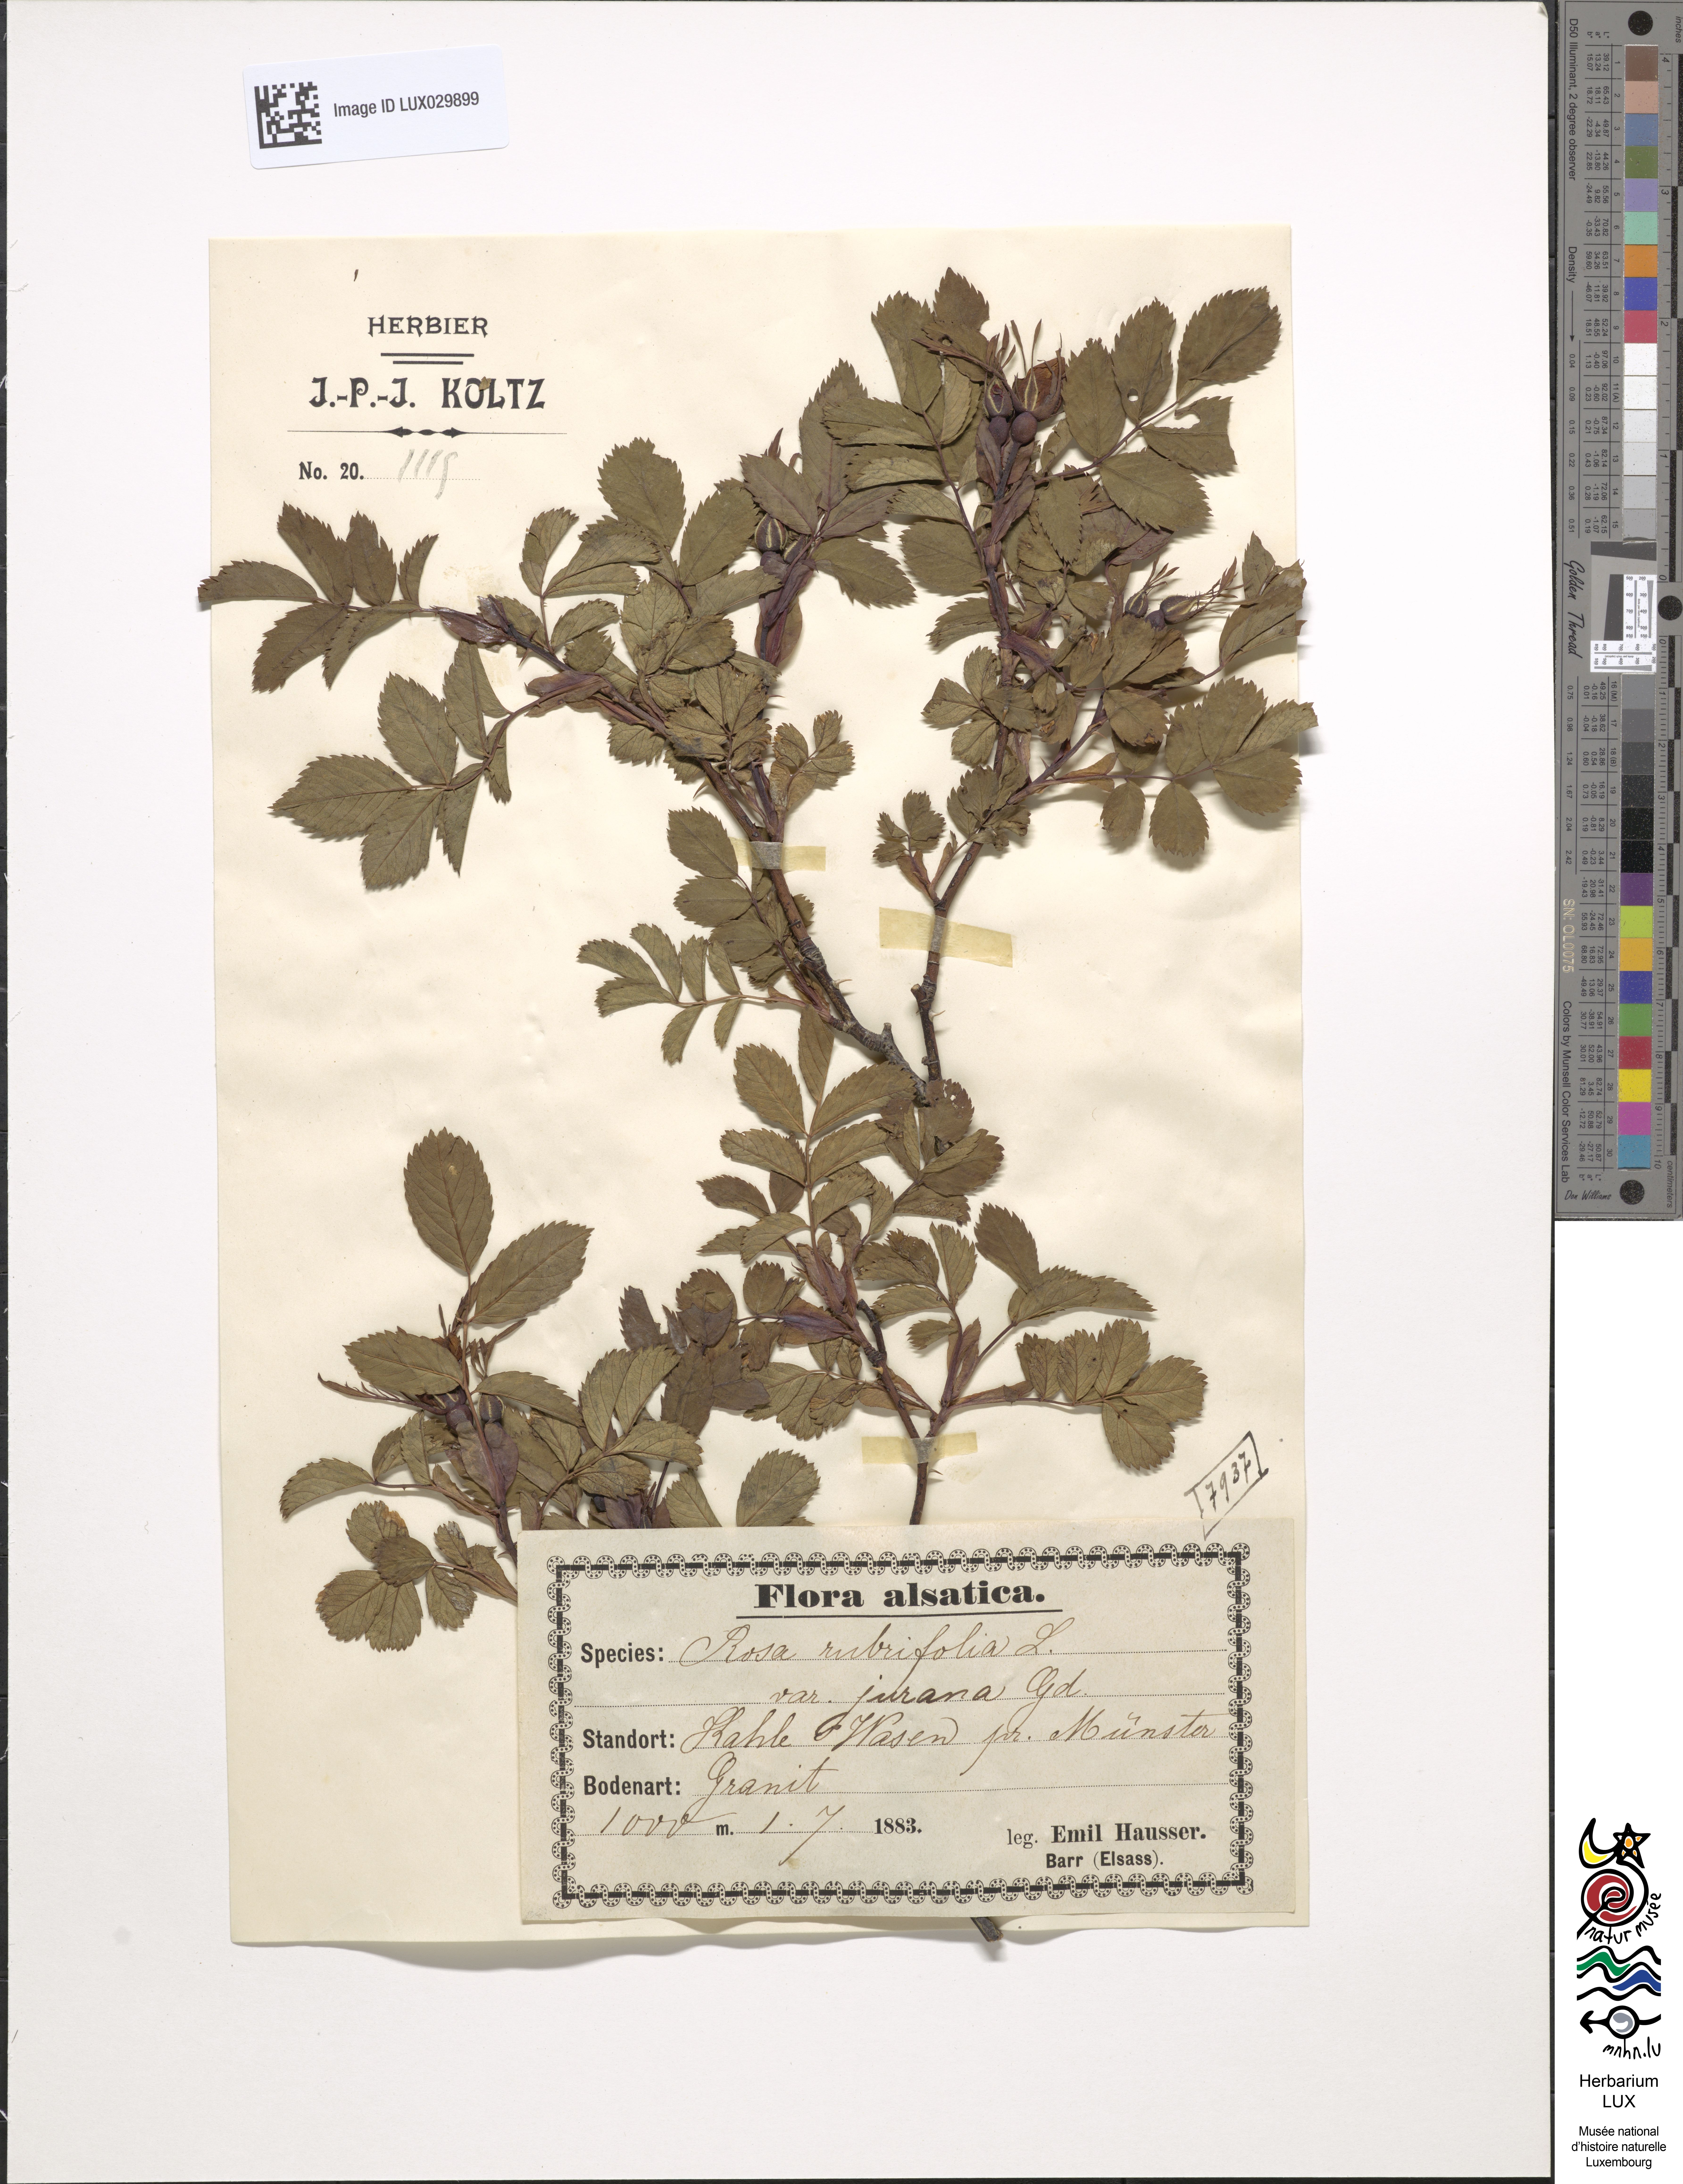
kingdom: Plantae
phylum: Tracheophyta
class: Magnoliopsida
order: Rosales
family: Rosaceae
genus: Rosa
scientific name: Rosa glauca
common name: Redleaf rose
